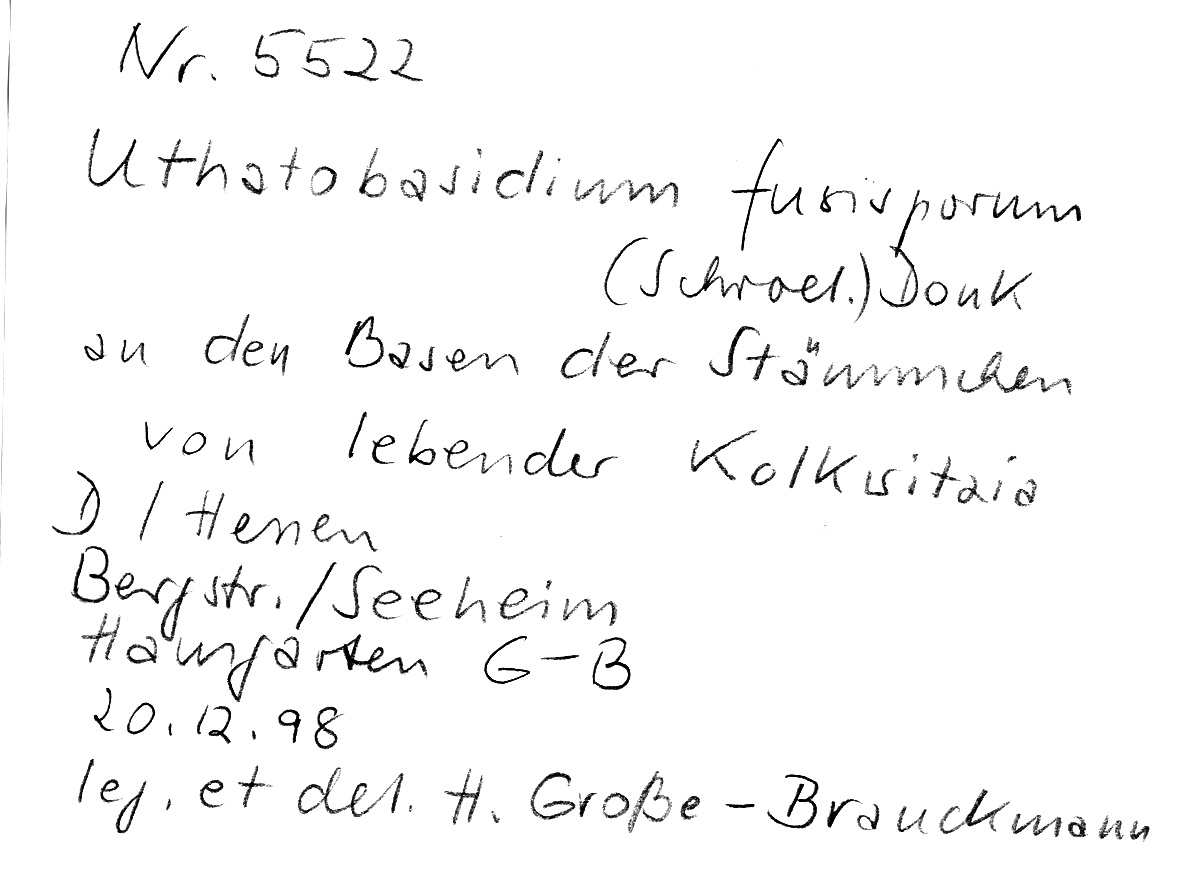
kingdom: Plantae
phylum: Tracheophyta
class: Magnoliopsida
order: Dipsacales
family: Caprifoliaceae
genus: Kolkwitzia
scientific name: Kolkwitzia
